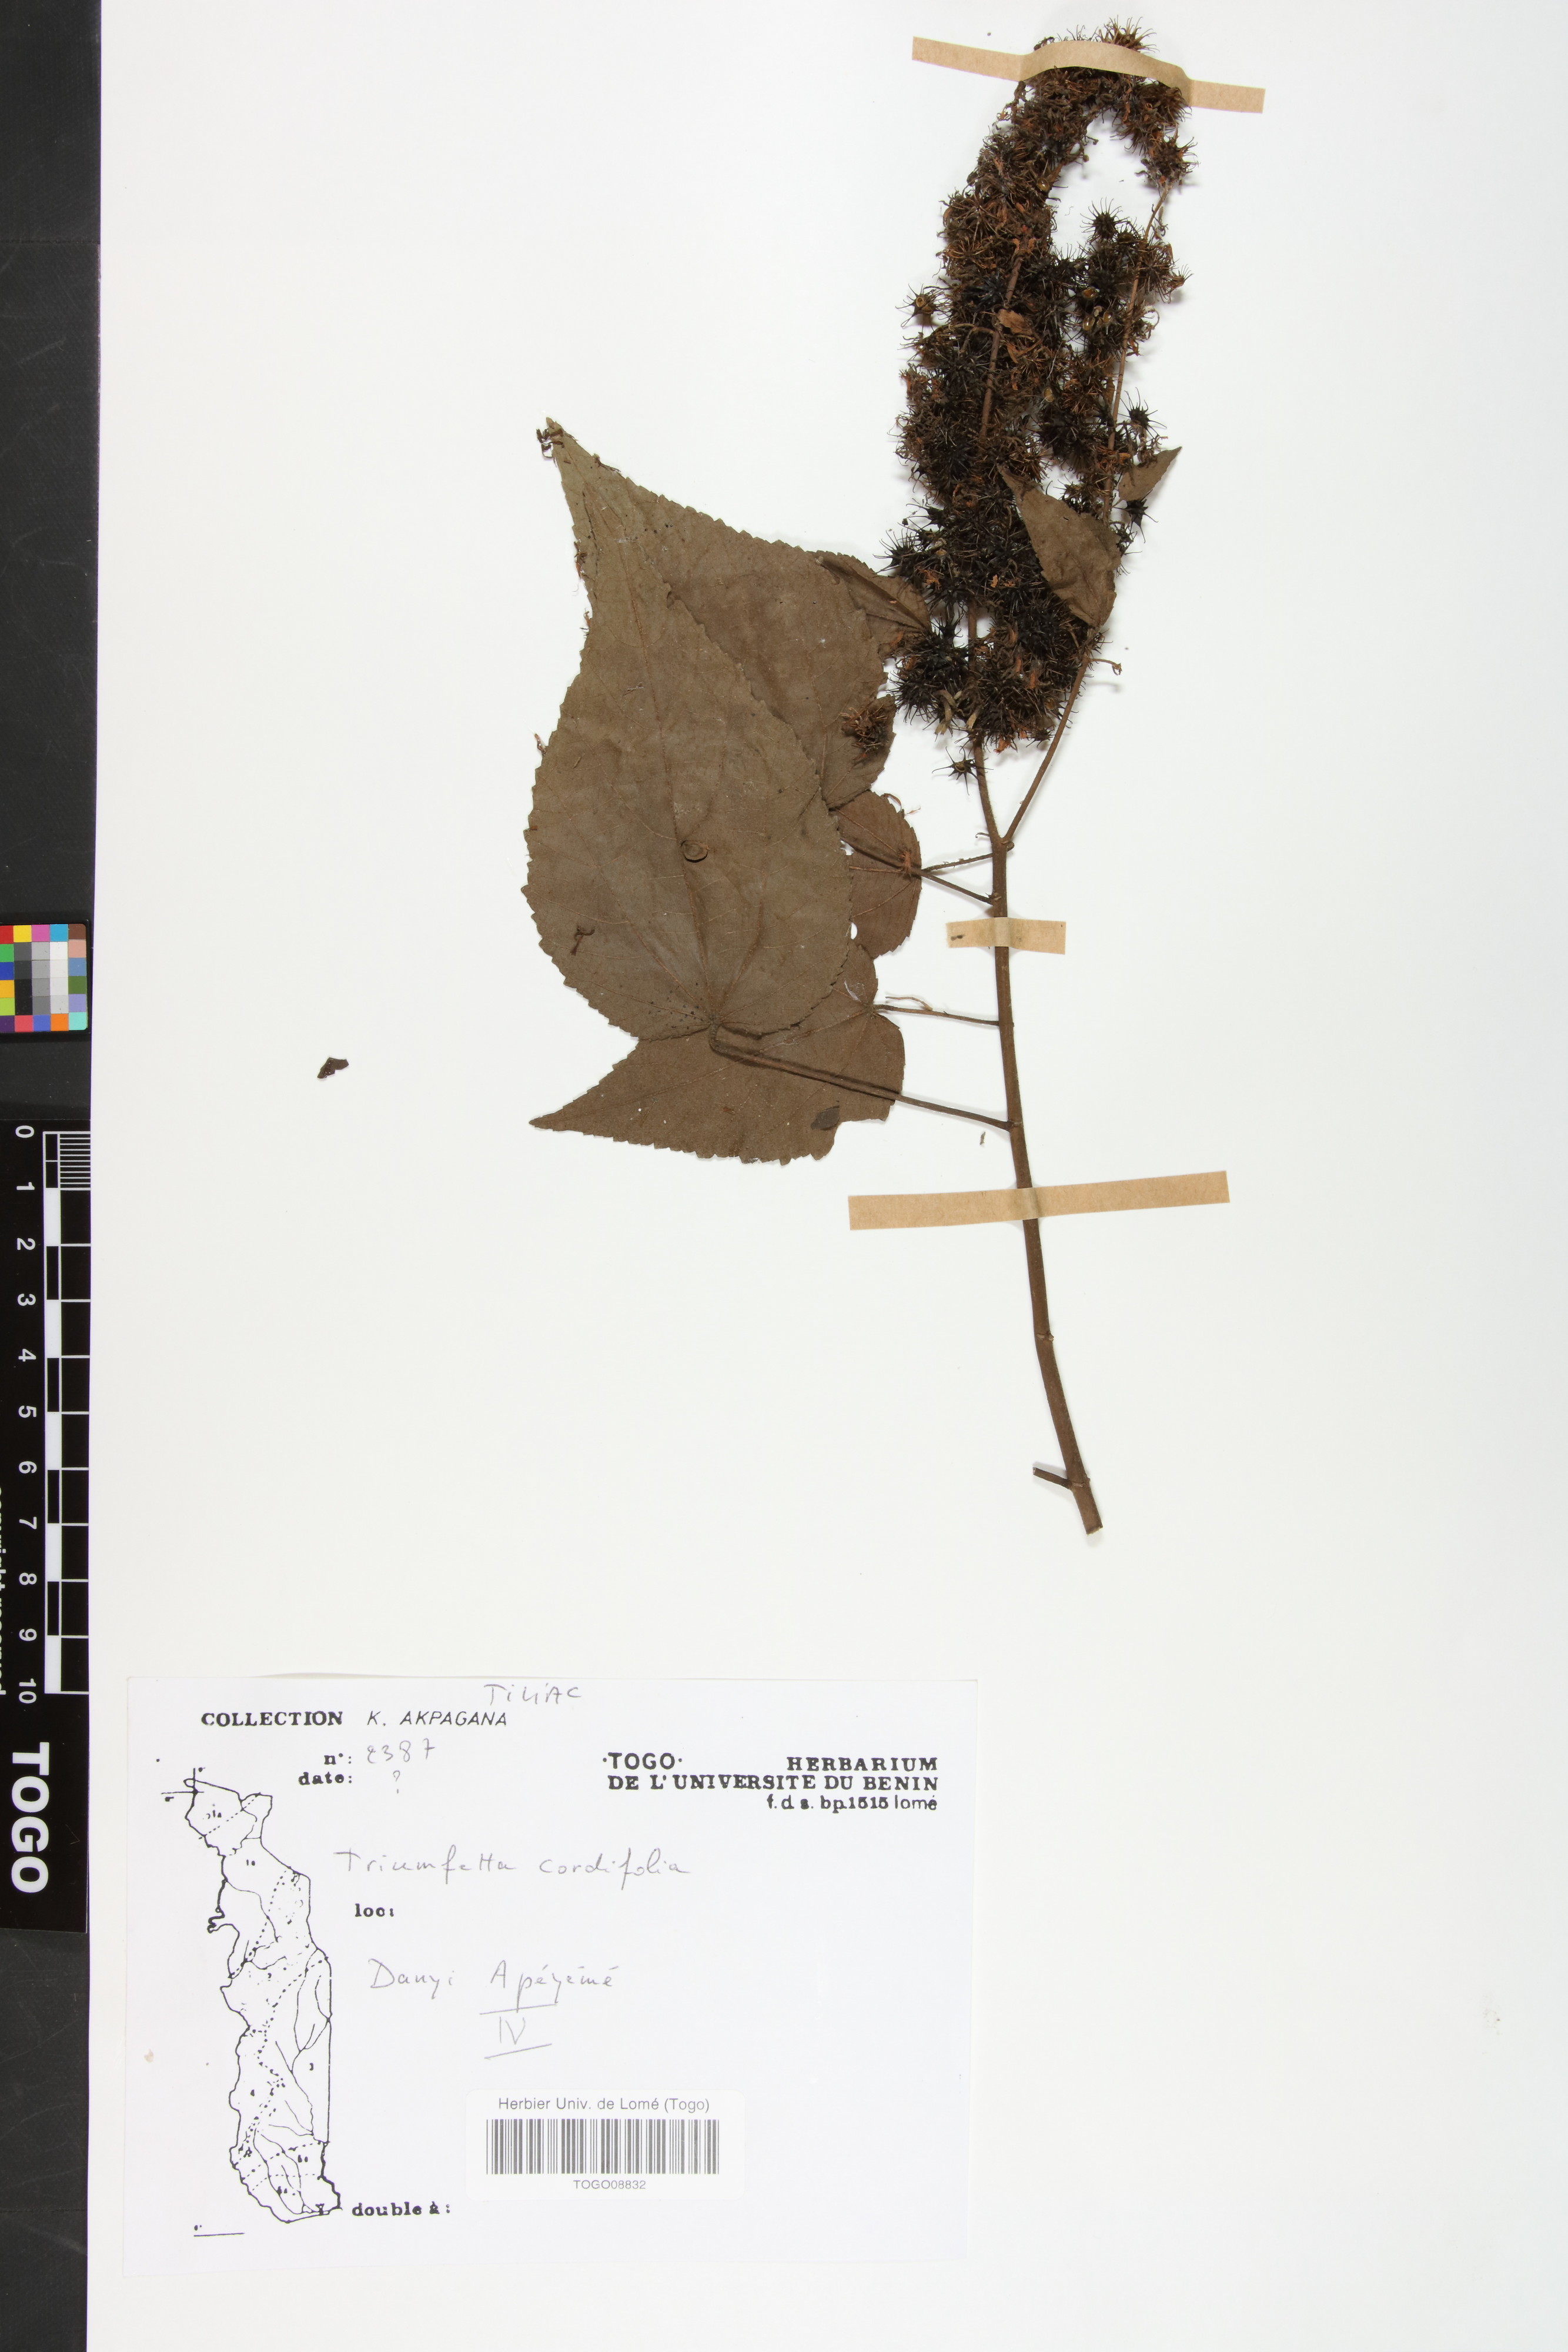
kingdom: Plantae
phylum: Tracheophyta
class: Magnoliopsida
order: Malvales
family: Malvaceae
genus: Triumfetta
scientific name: Triumfetta cordifolia
